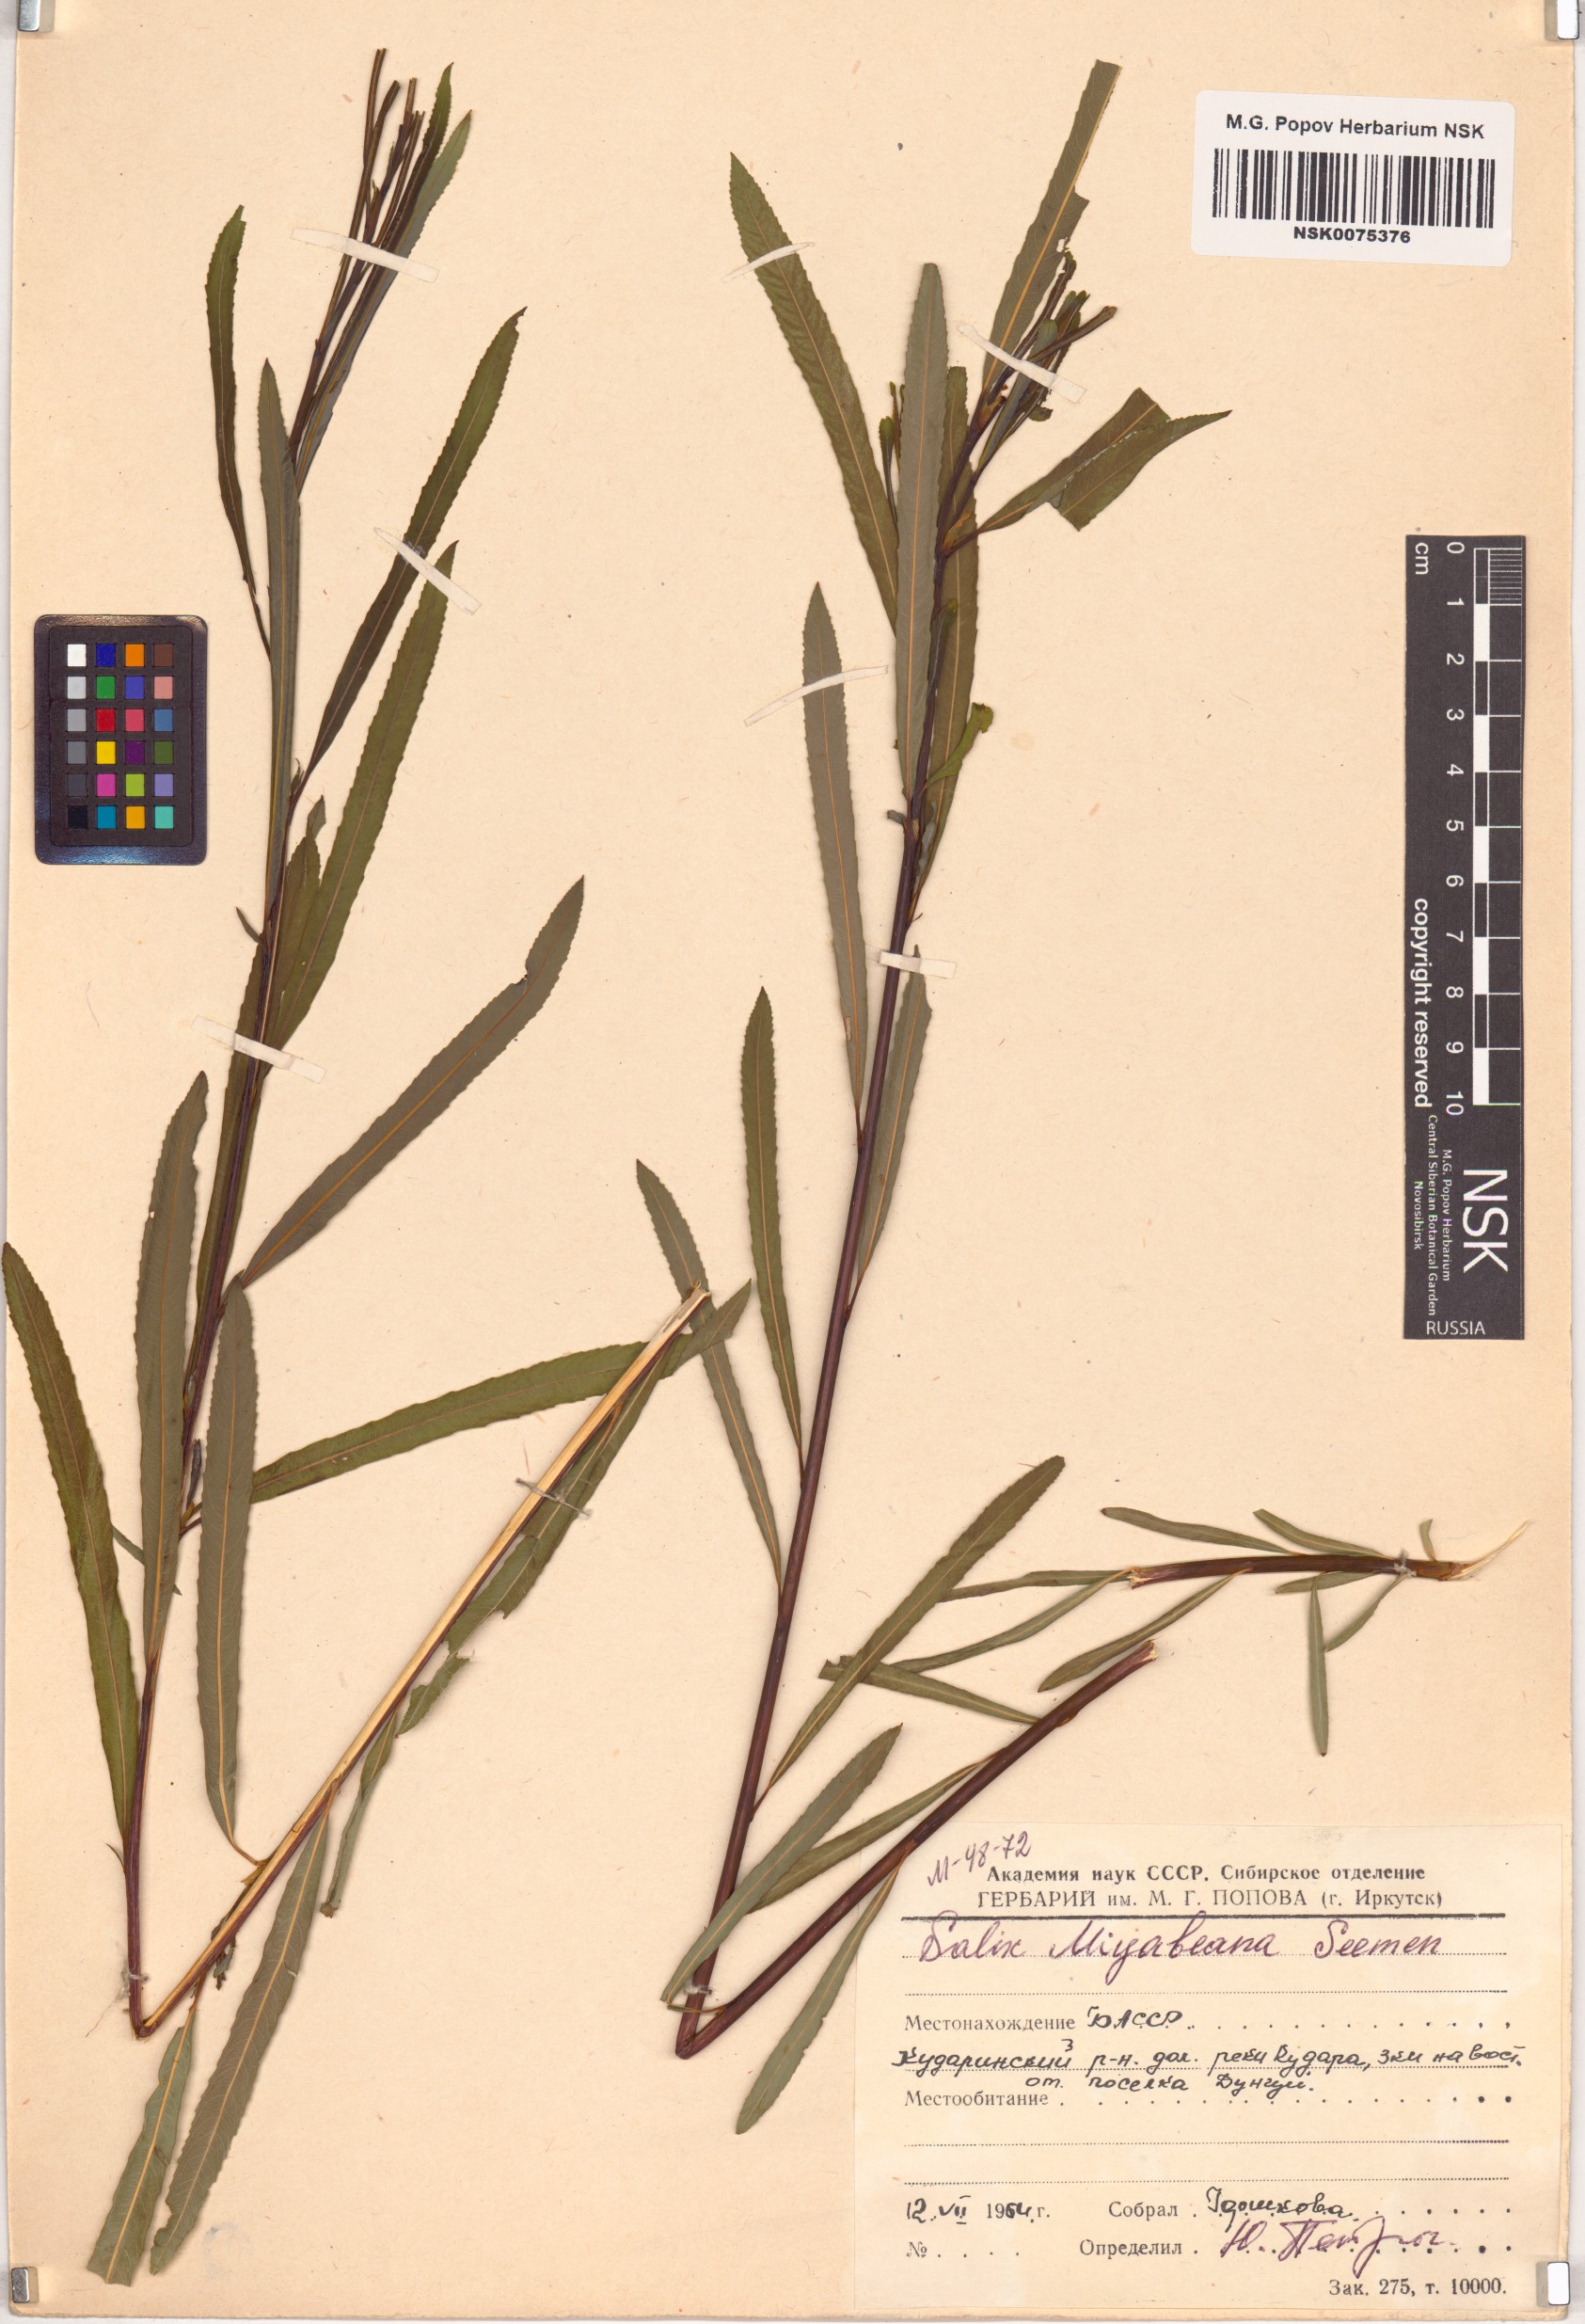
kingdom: Plantae
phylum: Tracheophyta
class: Magnoliopsida
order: Malpighiales
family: Salicaceae
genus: Salix
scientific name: Salix miyabeana
